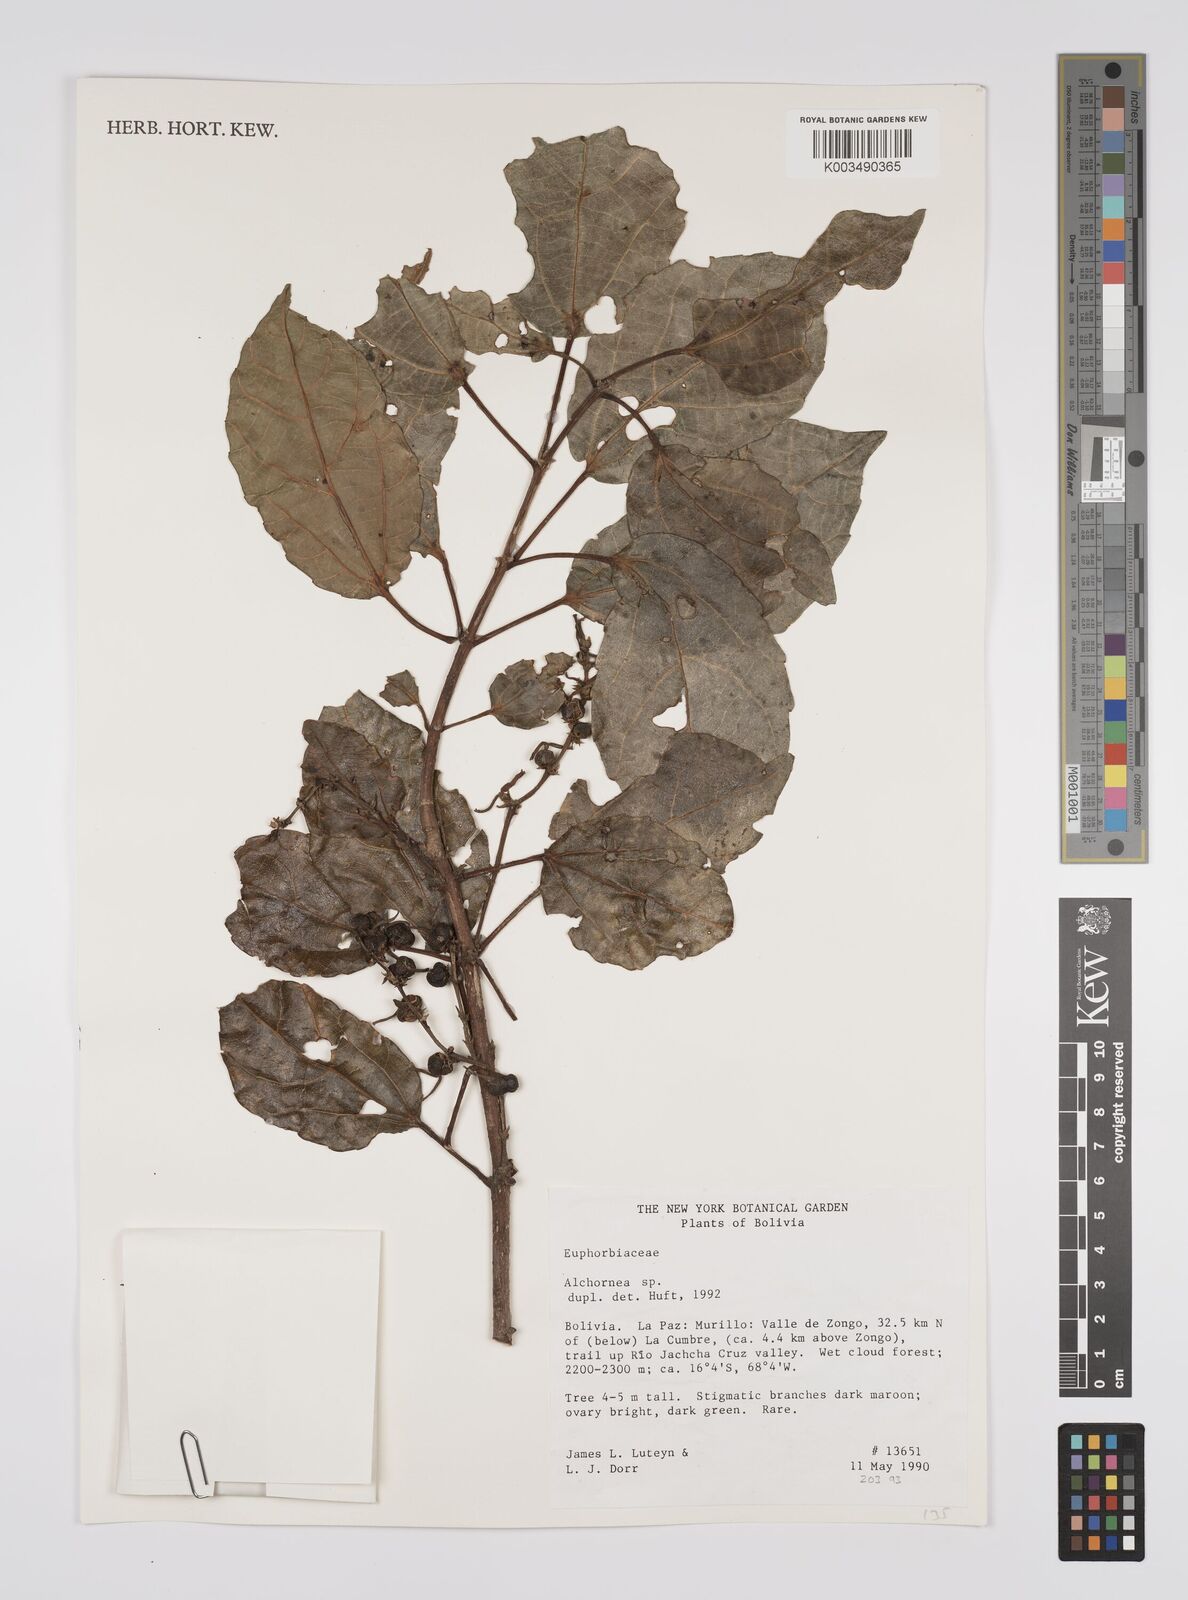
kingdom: Plantae
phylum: Tracheophyta
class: Magnoliopsida
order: Malpighiales
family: Euphorbiaceae
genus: Alchornea
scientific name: Alchornea
